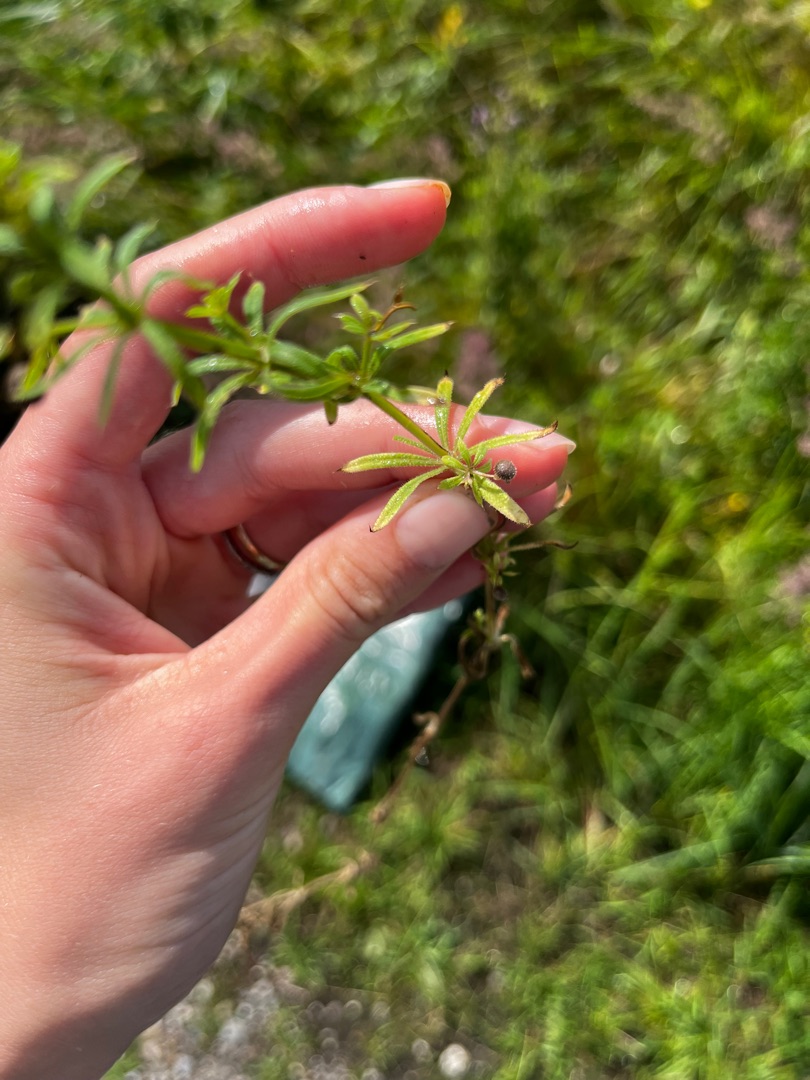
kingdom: Plantae
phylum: Tracheophyta
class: Magnoliopsida
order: Gentianales
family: Rubiaceae
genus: Galium
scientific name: Galium aparine
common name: Burre-snerre
